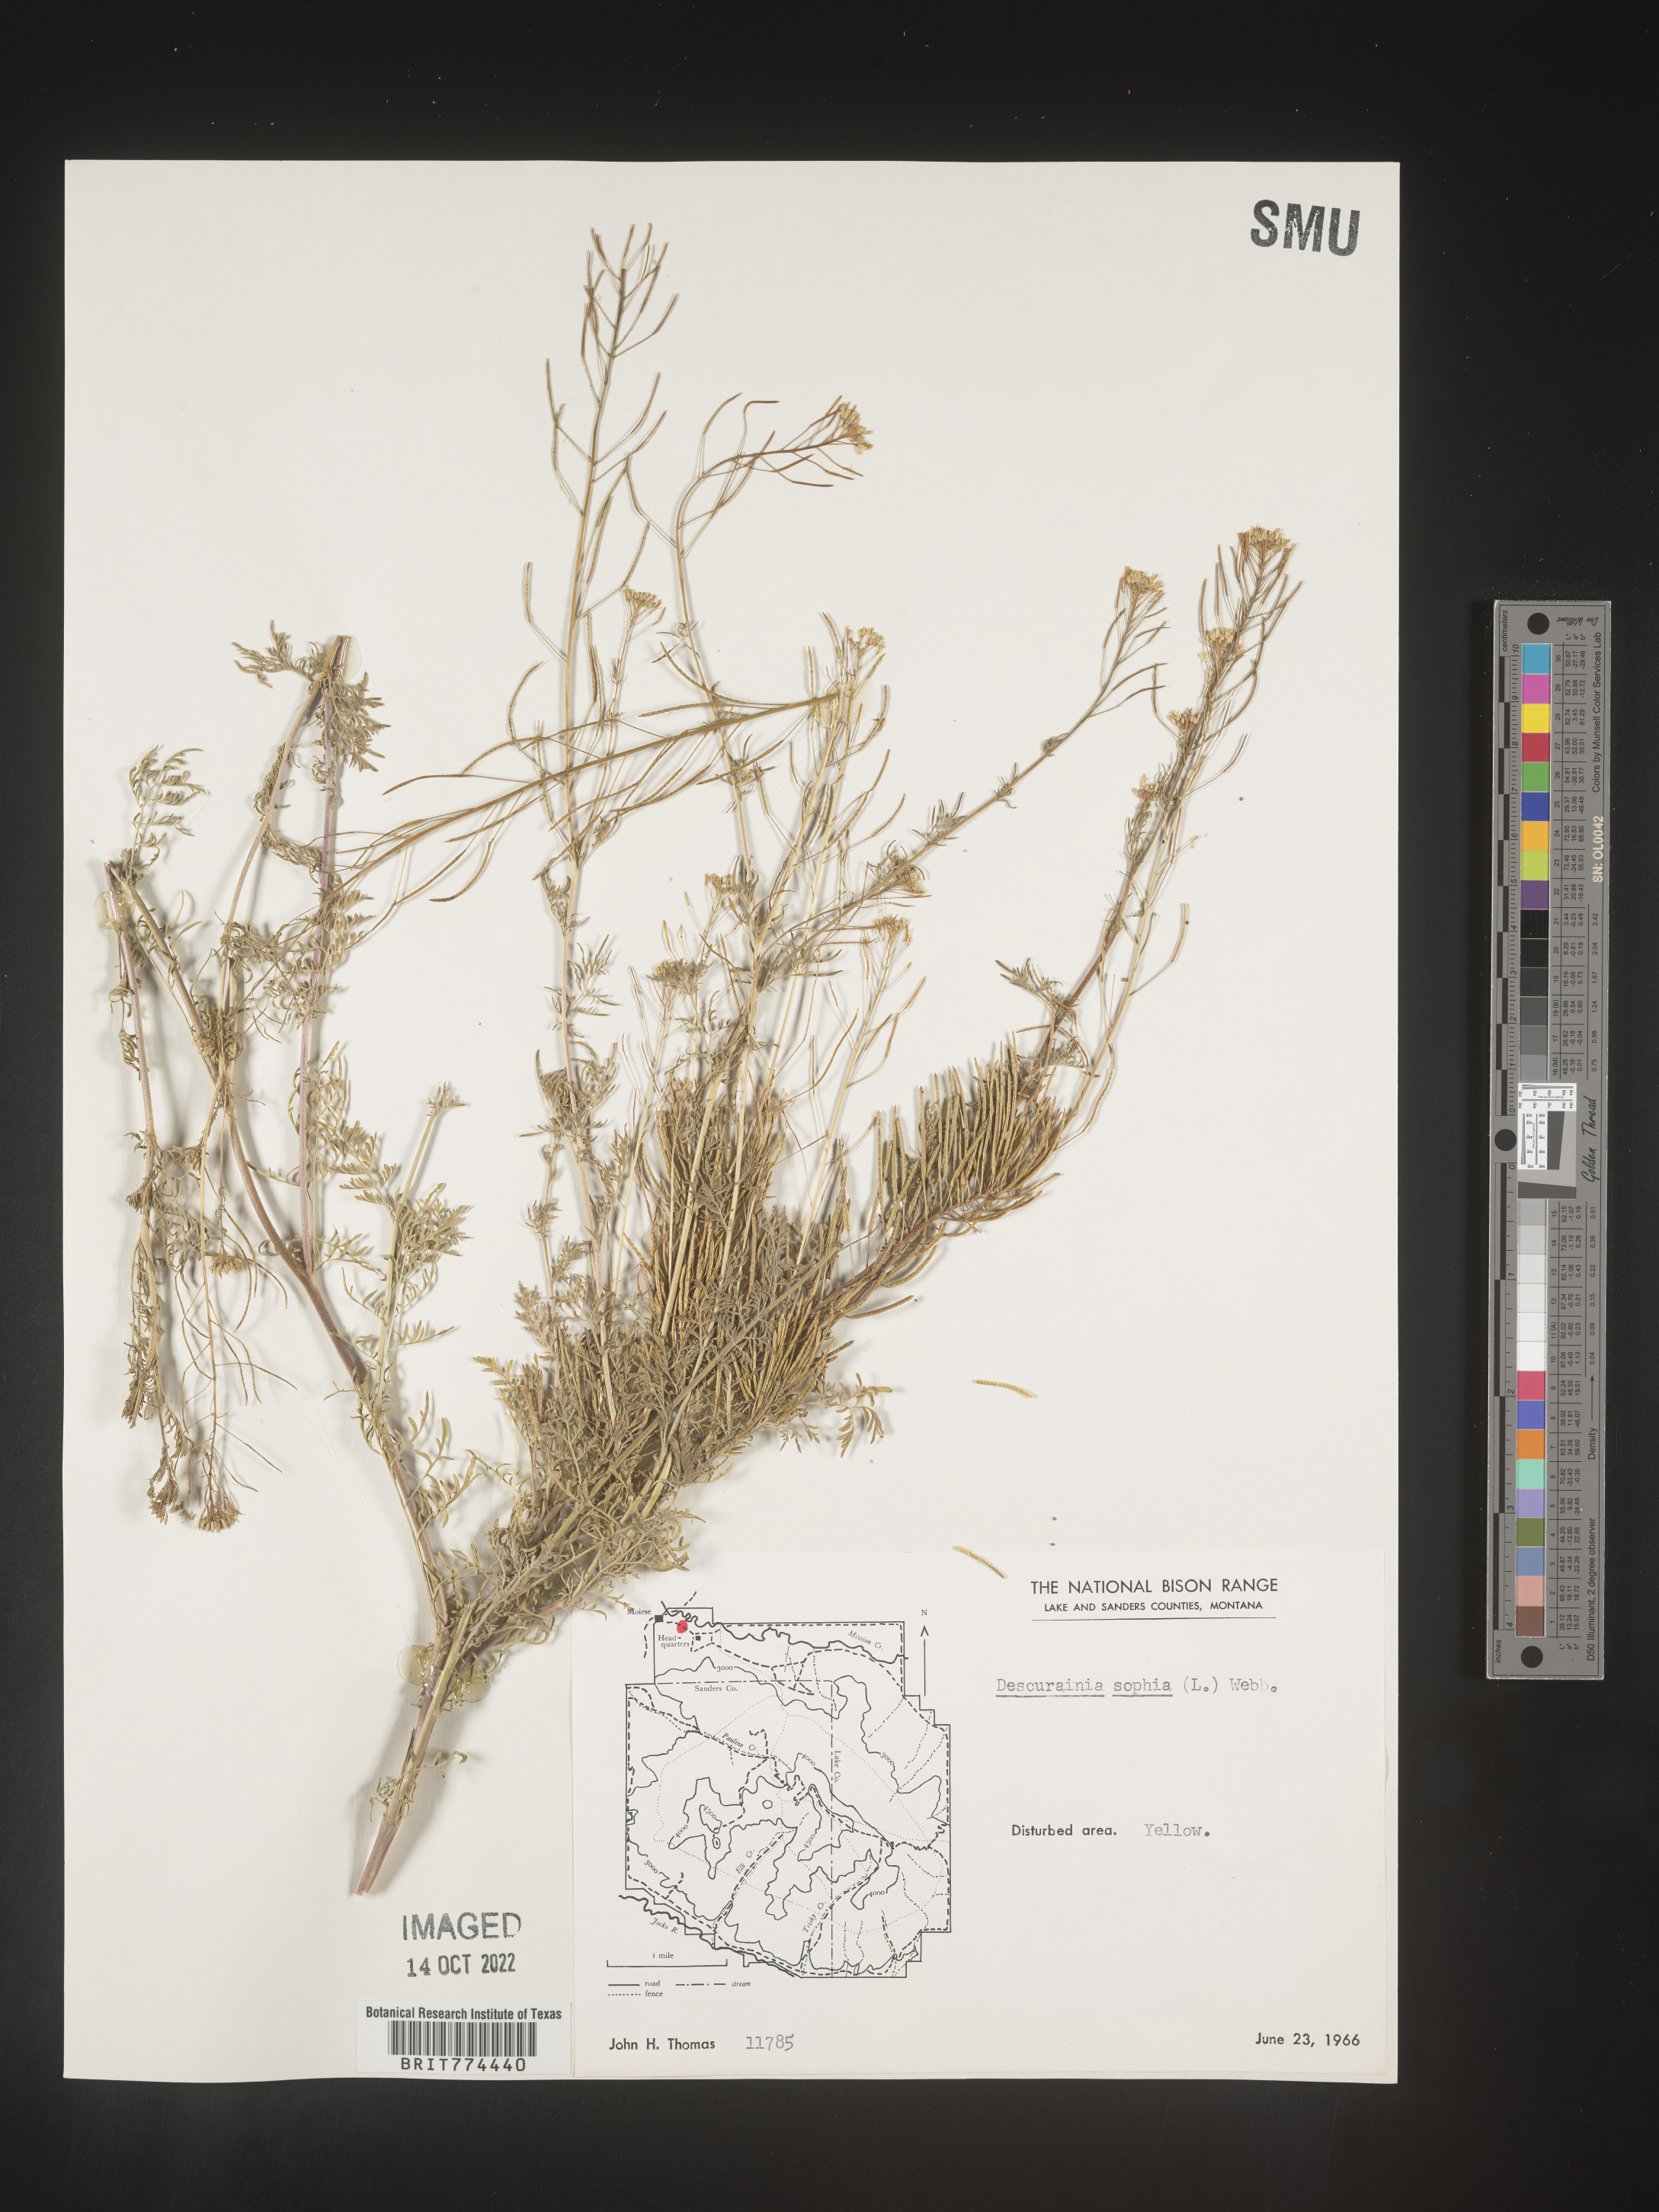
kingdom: Plantae
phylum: Tracheophyta
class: Magnoliopsida
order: Brassicales
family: Brassicaceae
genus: Descurainia
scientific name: Descurainia sophia
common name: Flixweed
